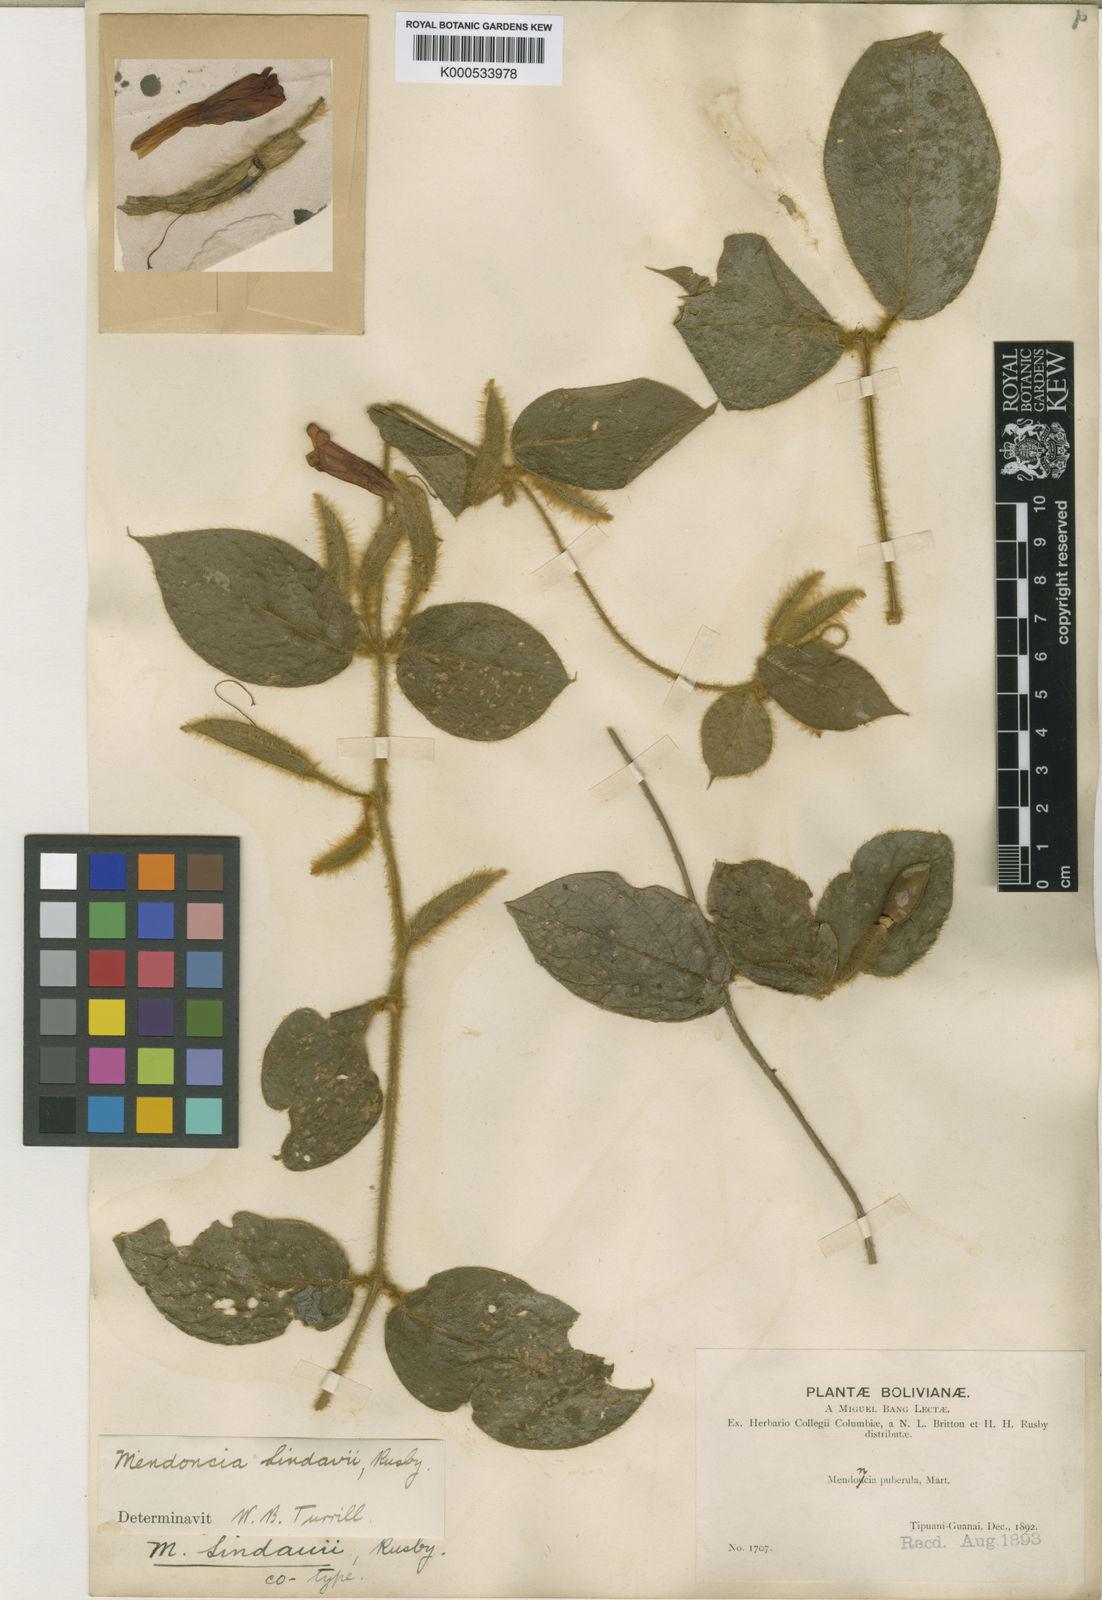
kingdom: Plantae
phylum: Tracheophyta
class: Magnoliopsida
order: Lamiales
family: Acanthaceae
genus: Mendoncia
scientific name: Mendoncia lindavii
